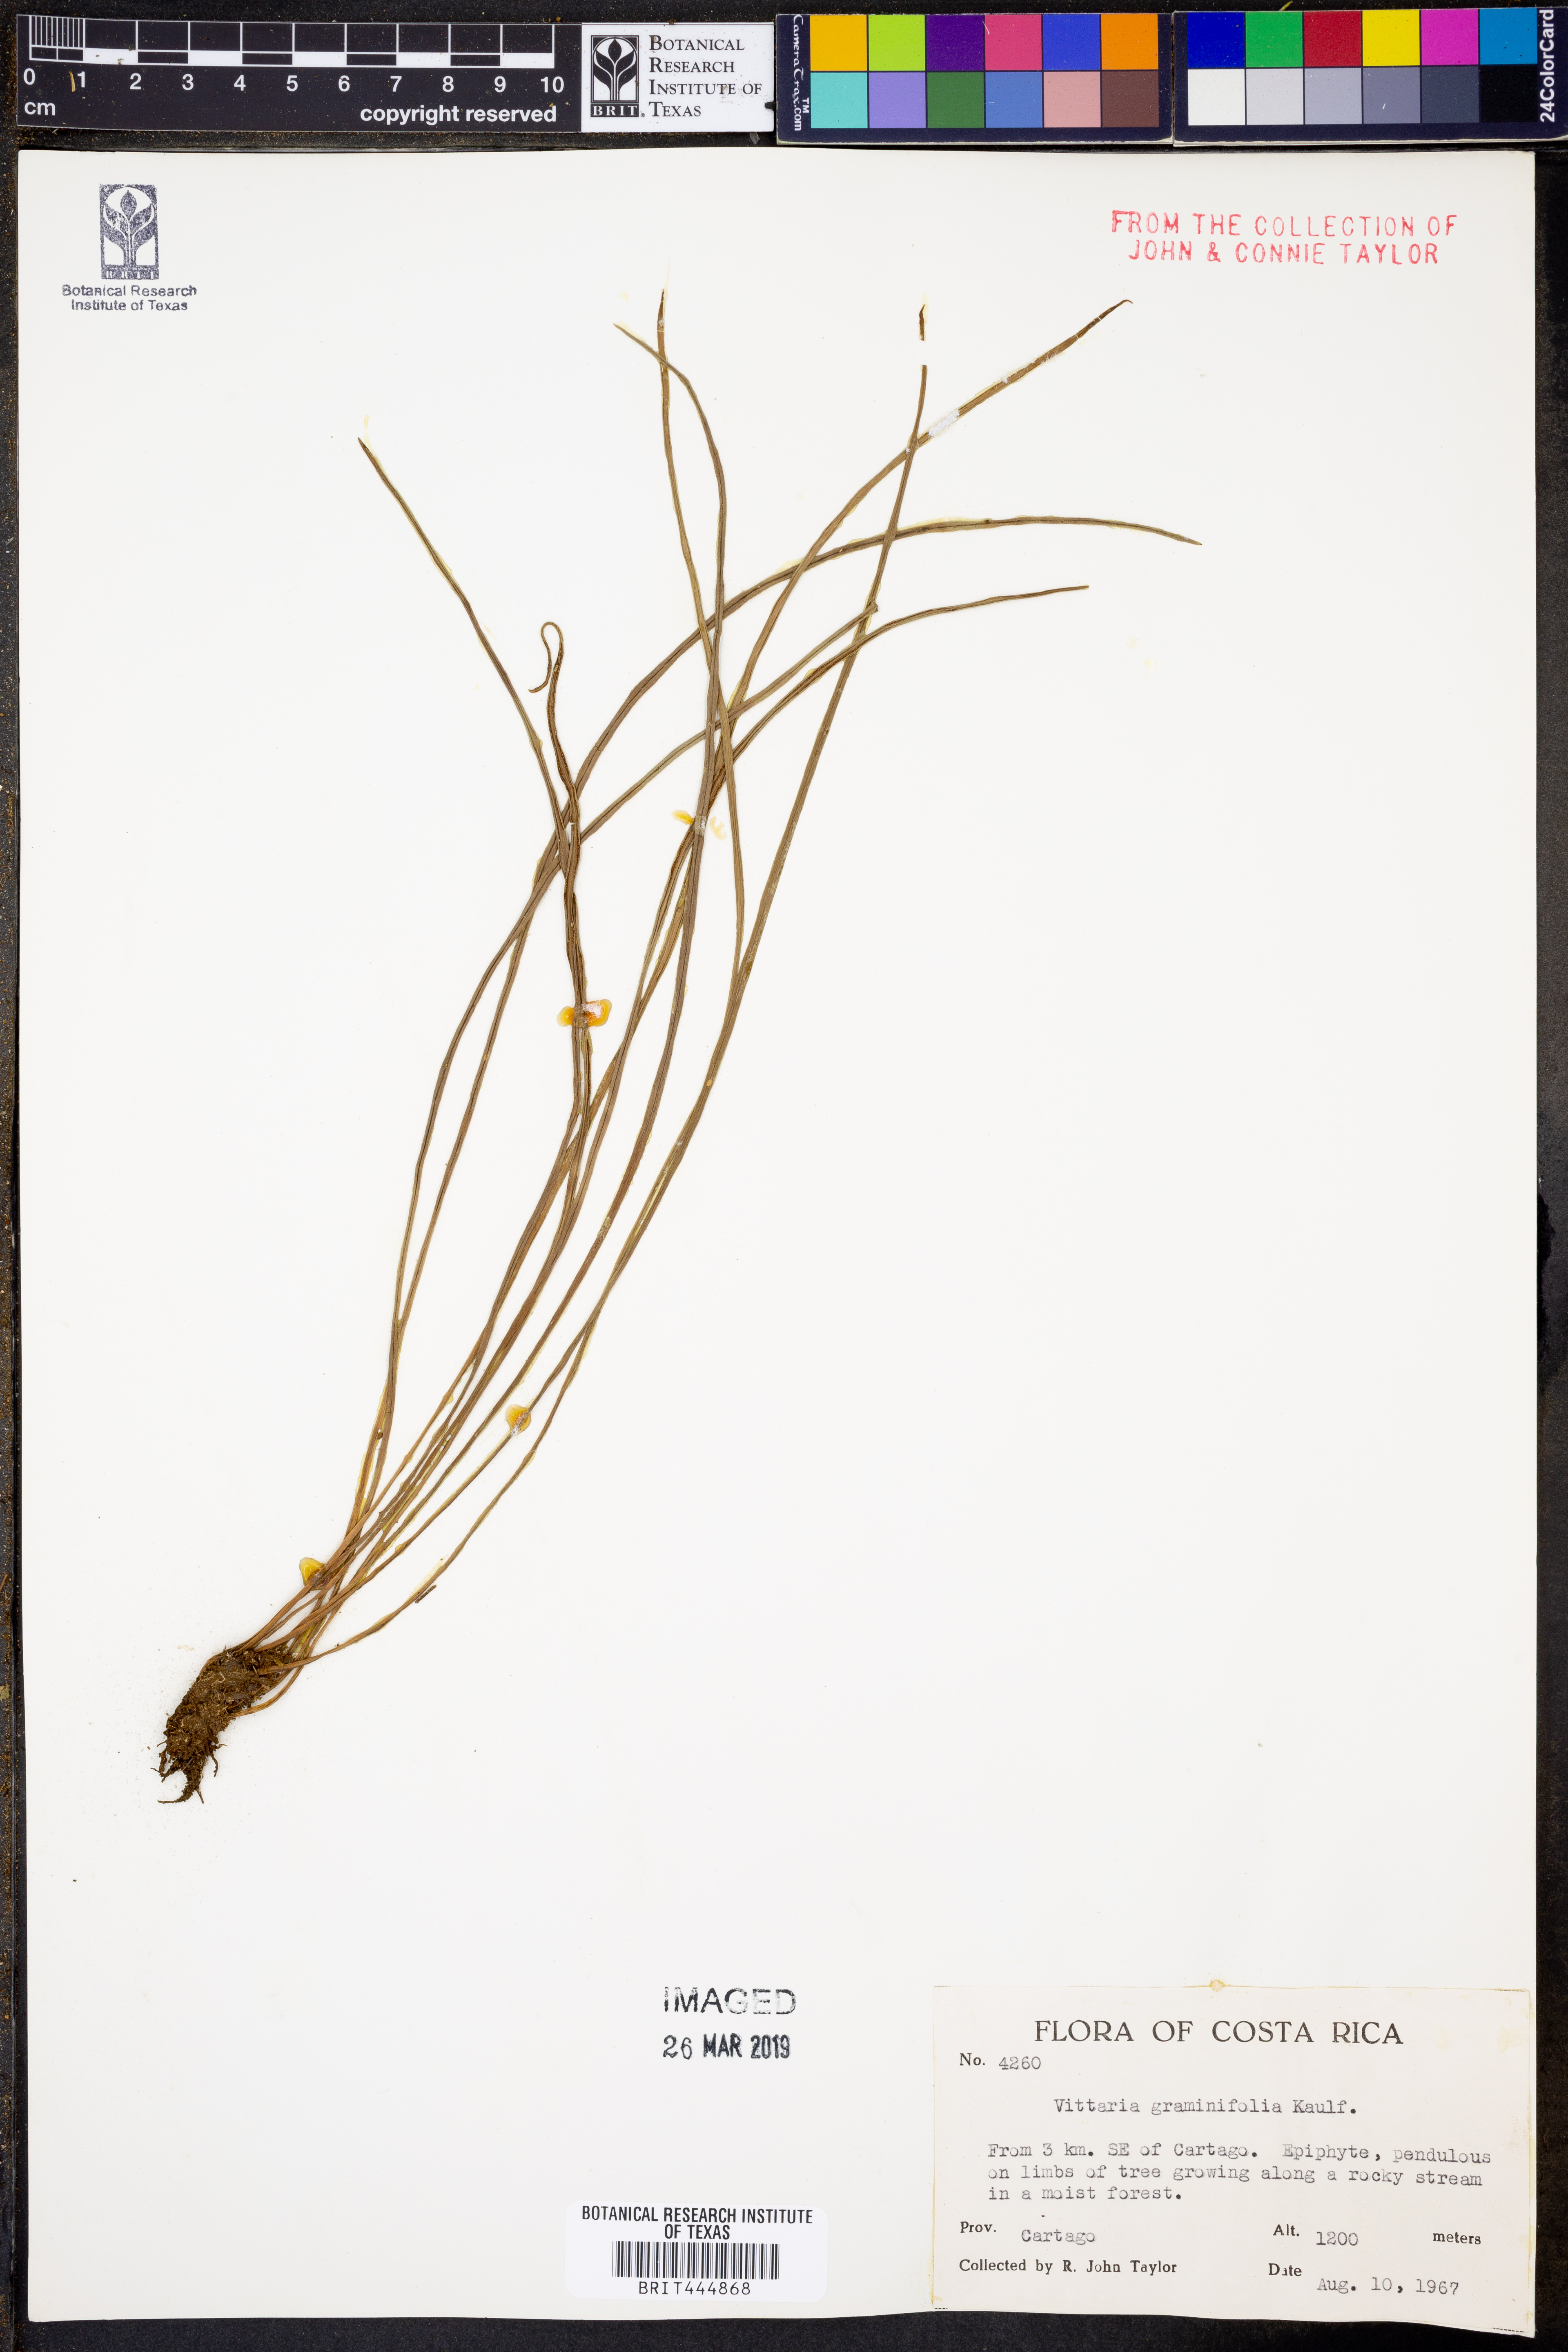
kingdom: Plantae
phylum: Tracheophyta
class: Polypodiopsida
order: Polypodiales
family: Pteridaceae
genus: Vittaria
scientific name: Vittaria graminifolia
